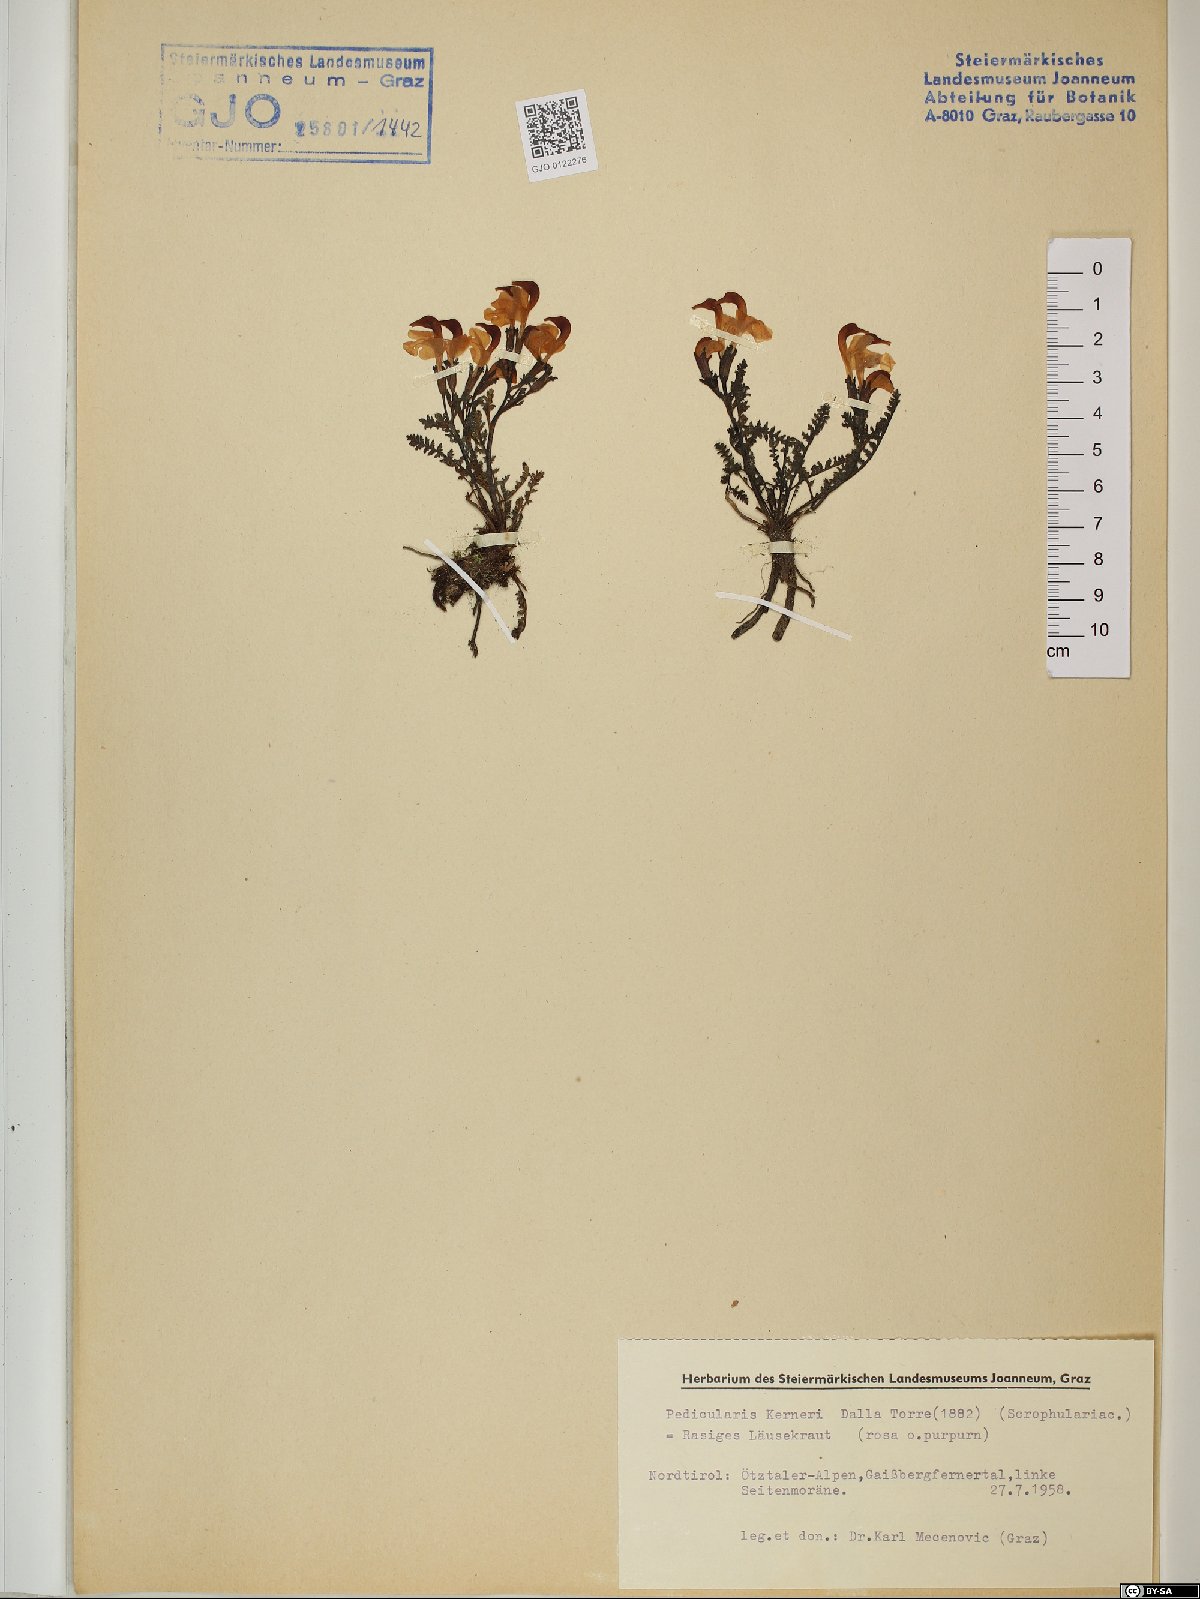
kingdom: Plantae
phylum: Tracheophyta
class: Magnoliopsida
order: Lamiales
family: Orobanchaceae
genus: Pedicularis
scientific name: Pedicularis kerneri
